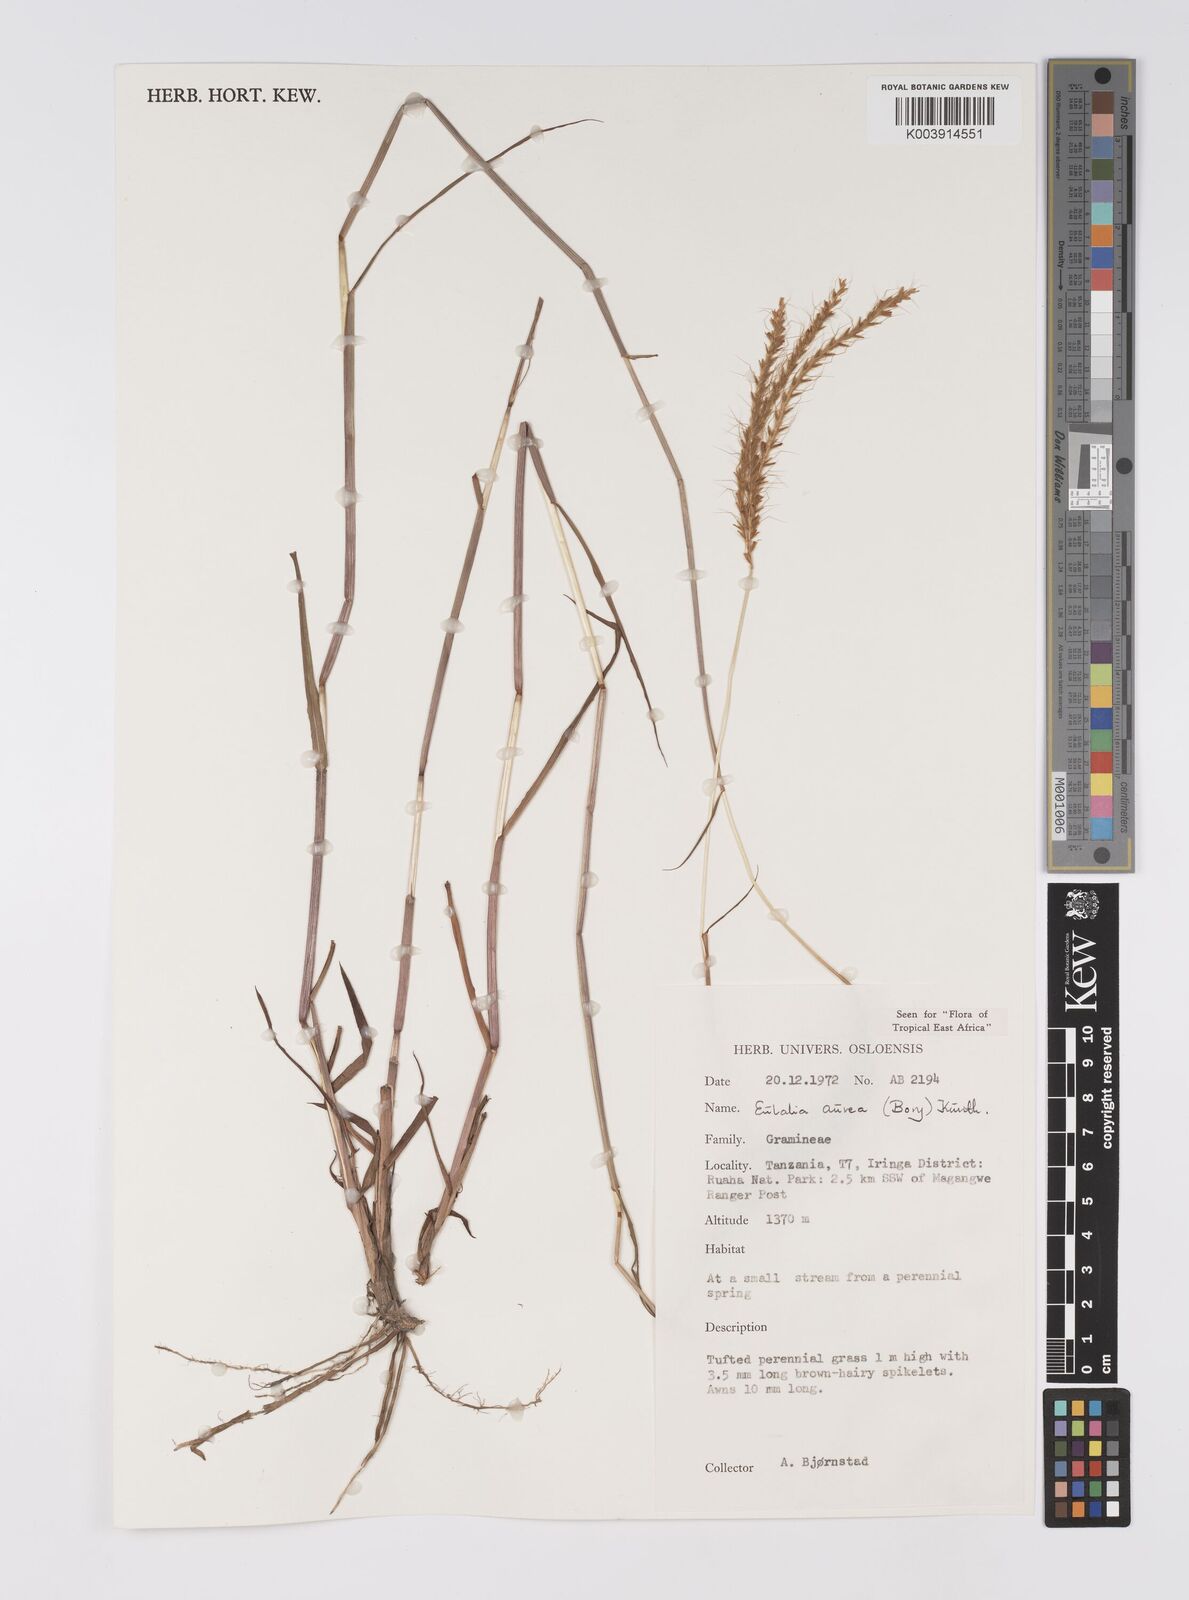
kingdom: Plantae
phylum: Tracheophyta
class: Liliopsida
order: Poales
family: Poaceae
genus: Eulalia
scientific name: Eulalia aurea
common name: Silky browntop
